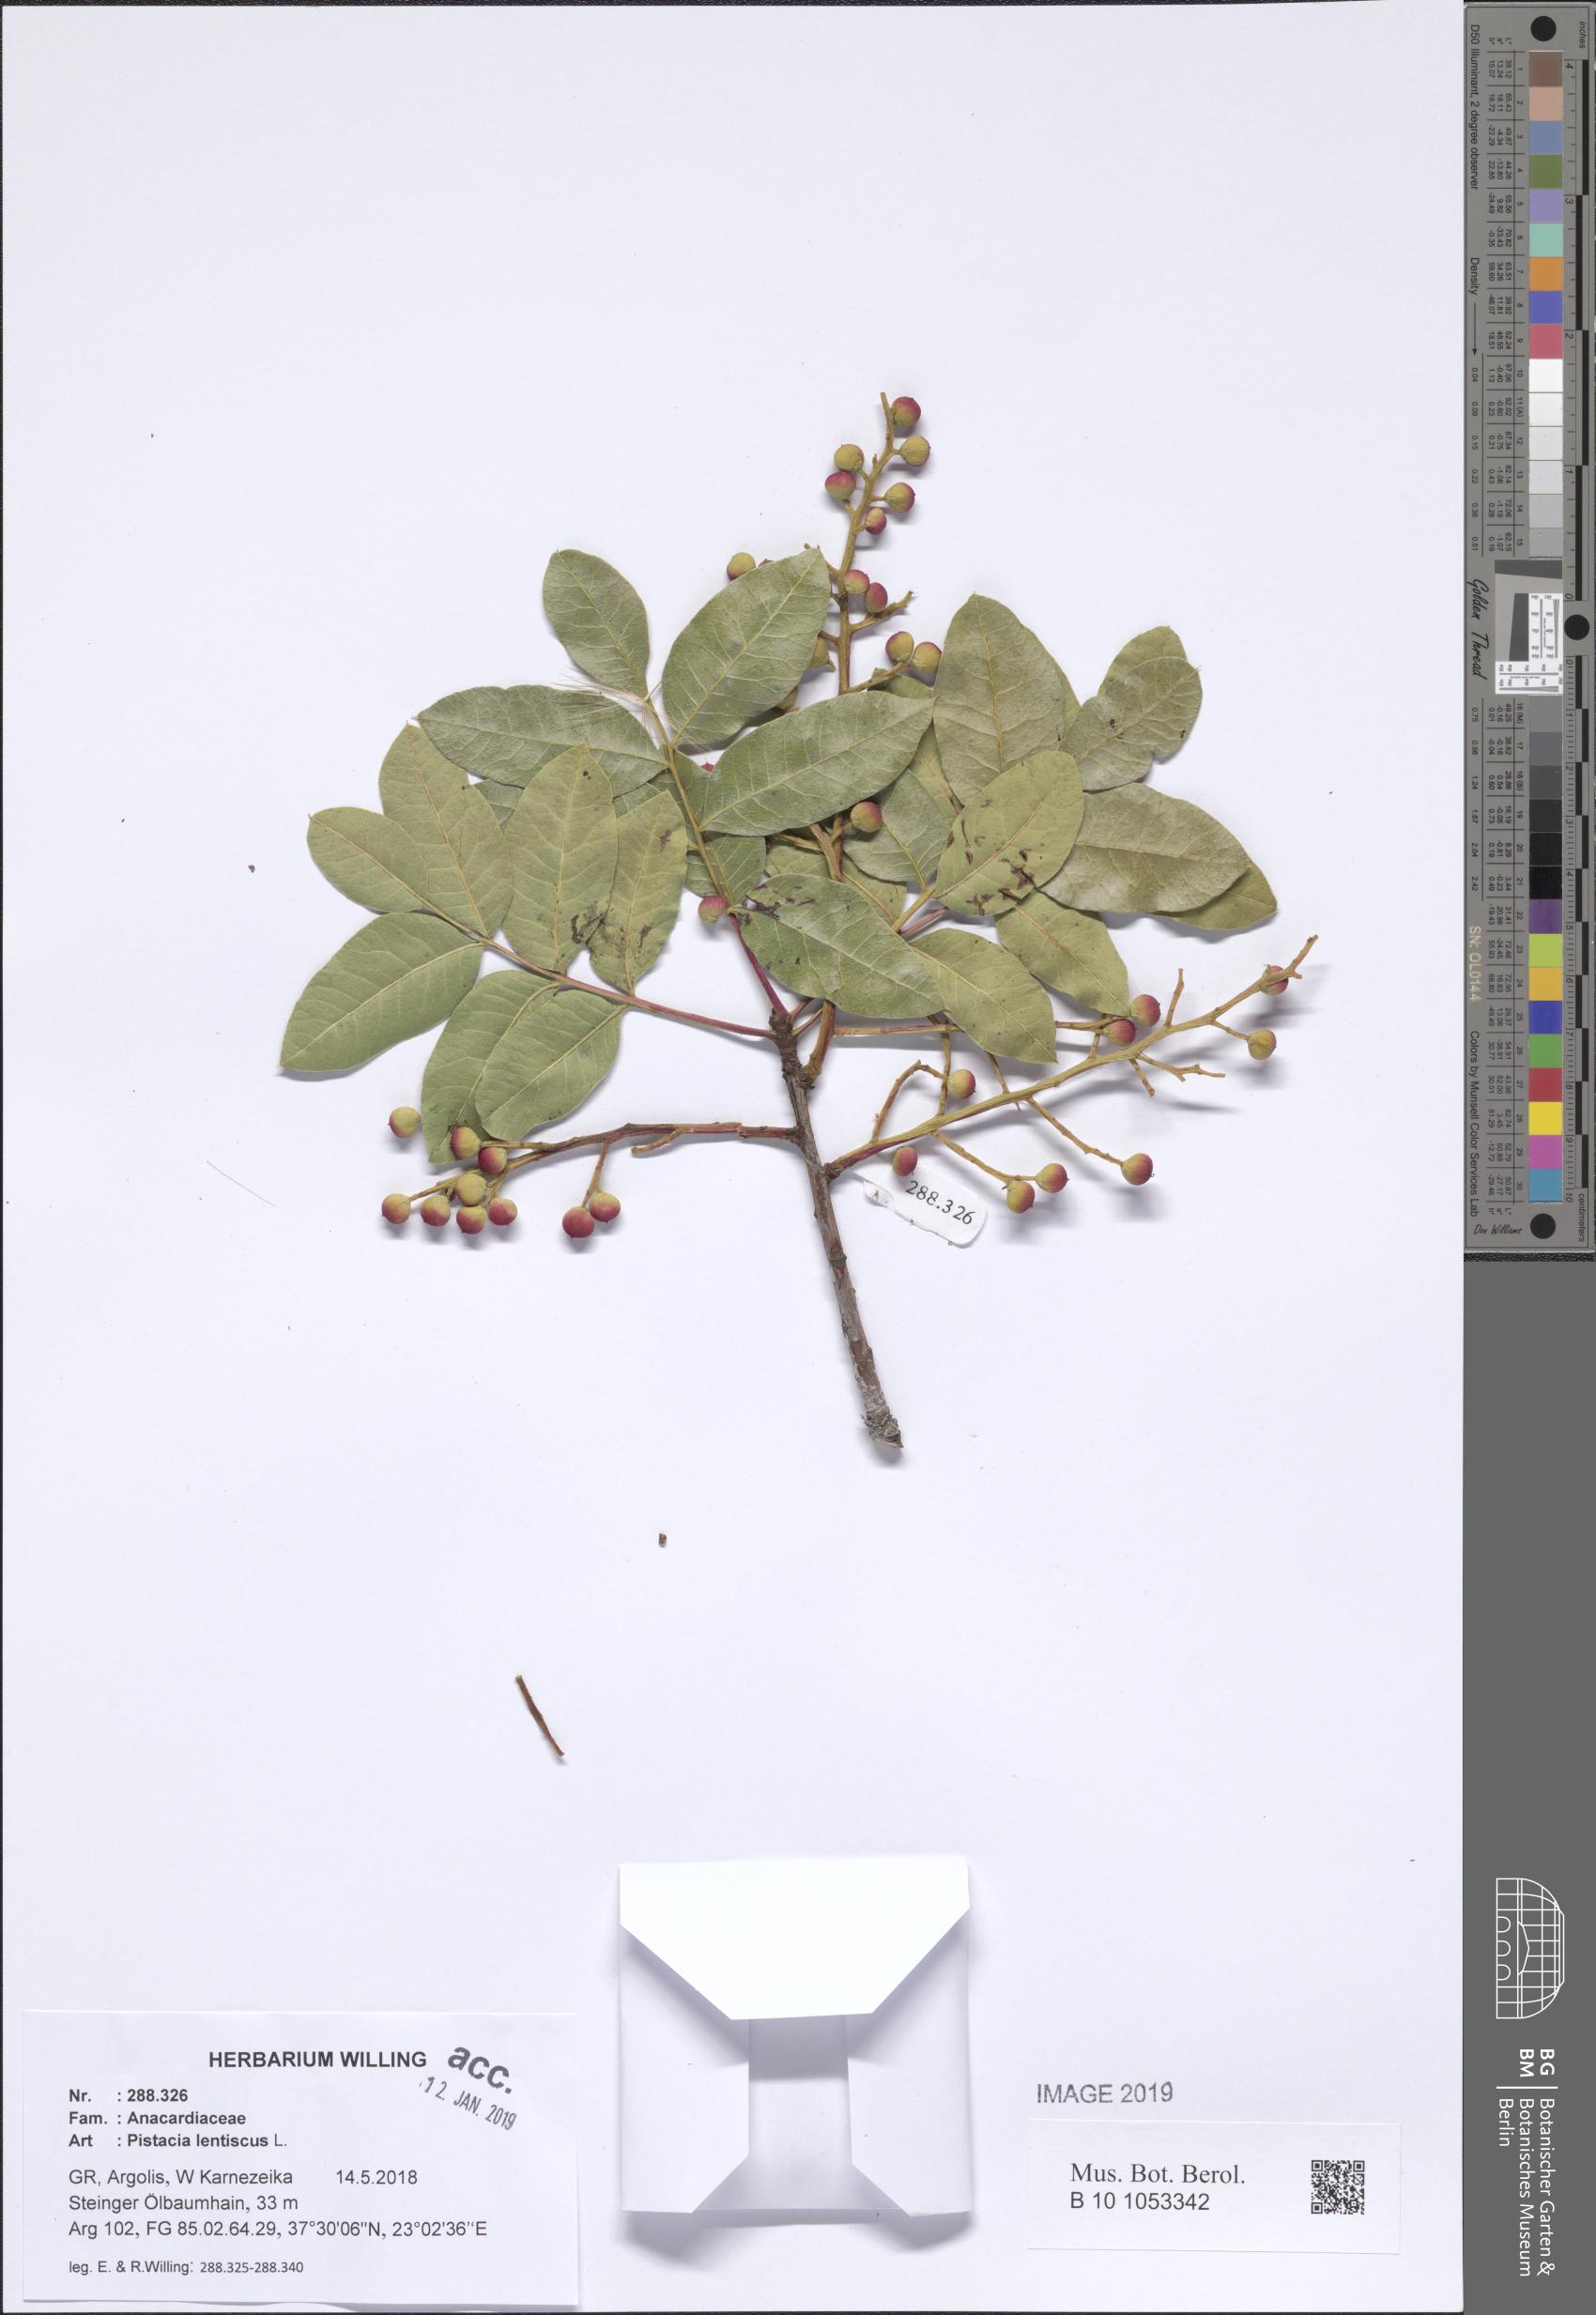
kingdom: Plantae
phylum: Tracheophyta
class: Magnoliopsida
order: Sapindales
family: Anacardiaceae
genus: Pistacia
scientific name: Pistacia lentiscus
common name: Lentisk
